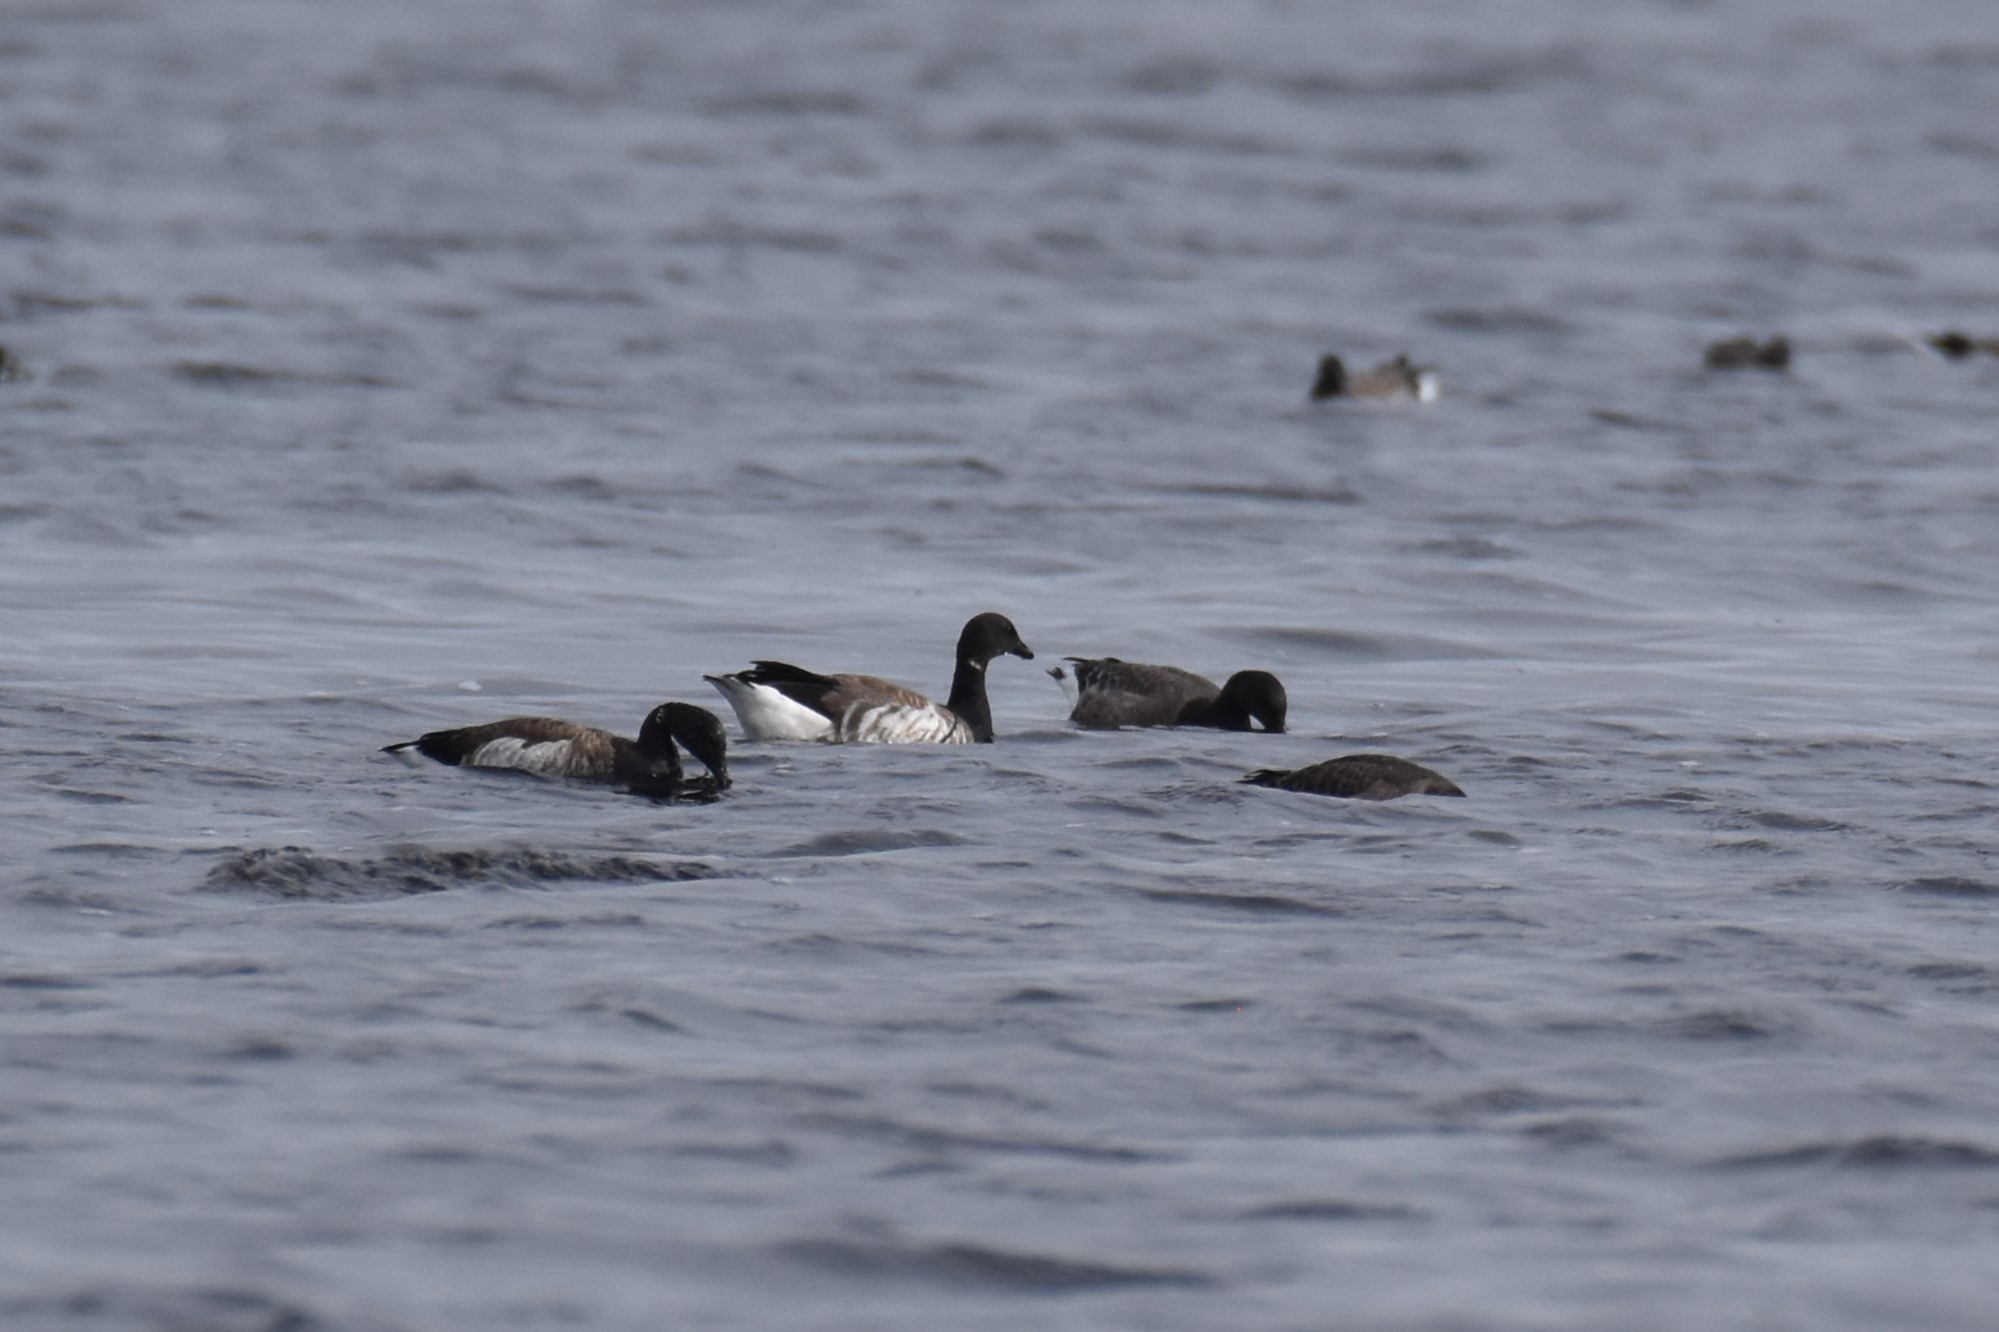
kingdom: Animalia
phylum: Chordata
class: Aves
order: Anseriformes
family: Anatidae
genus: Branta
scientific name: Branta bernicla
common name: Lysbuget knortegås
